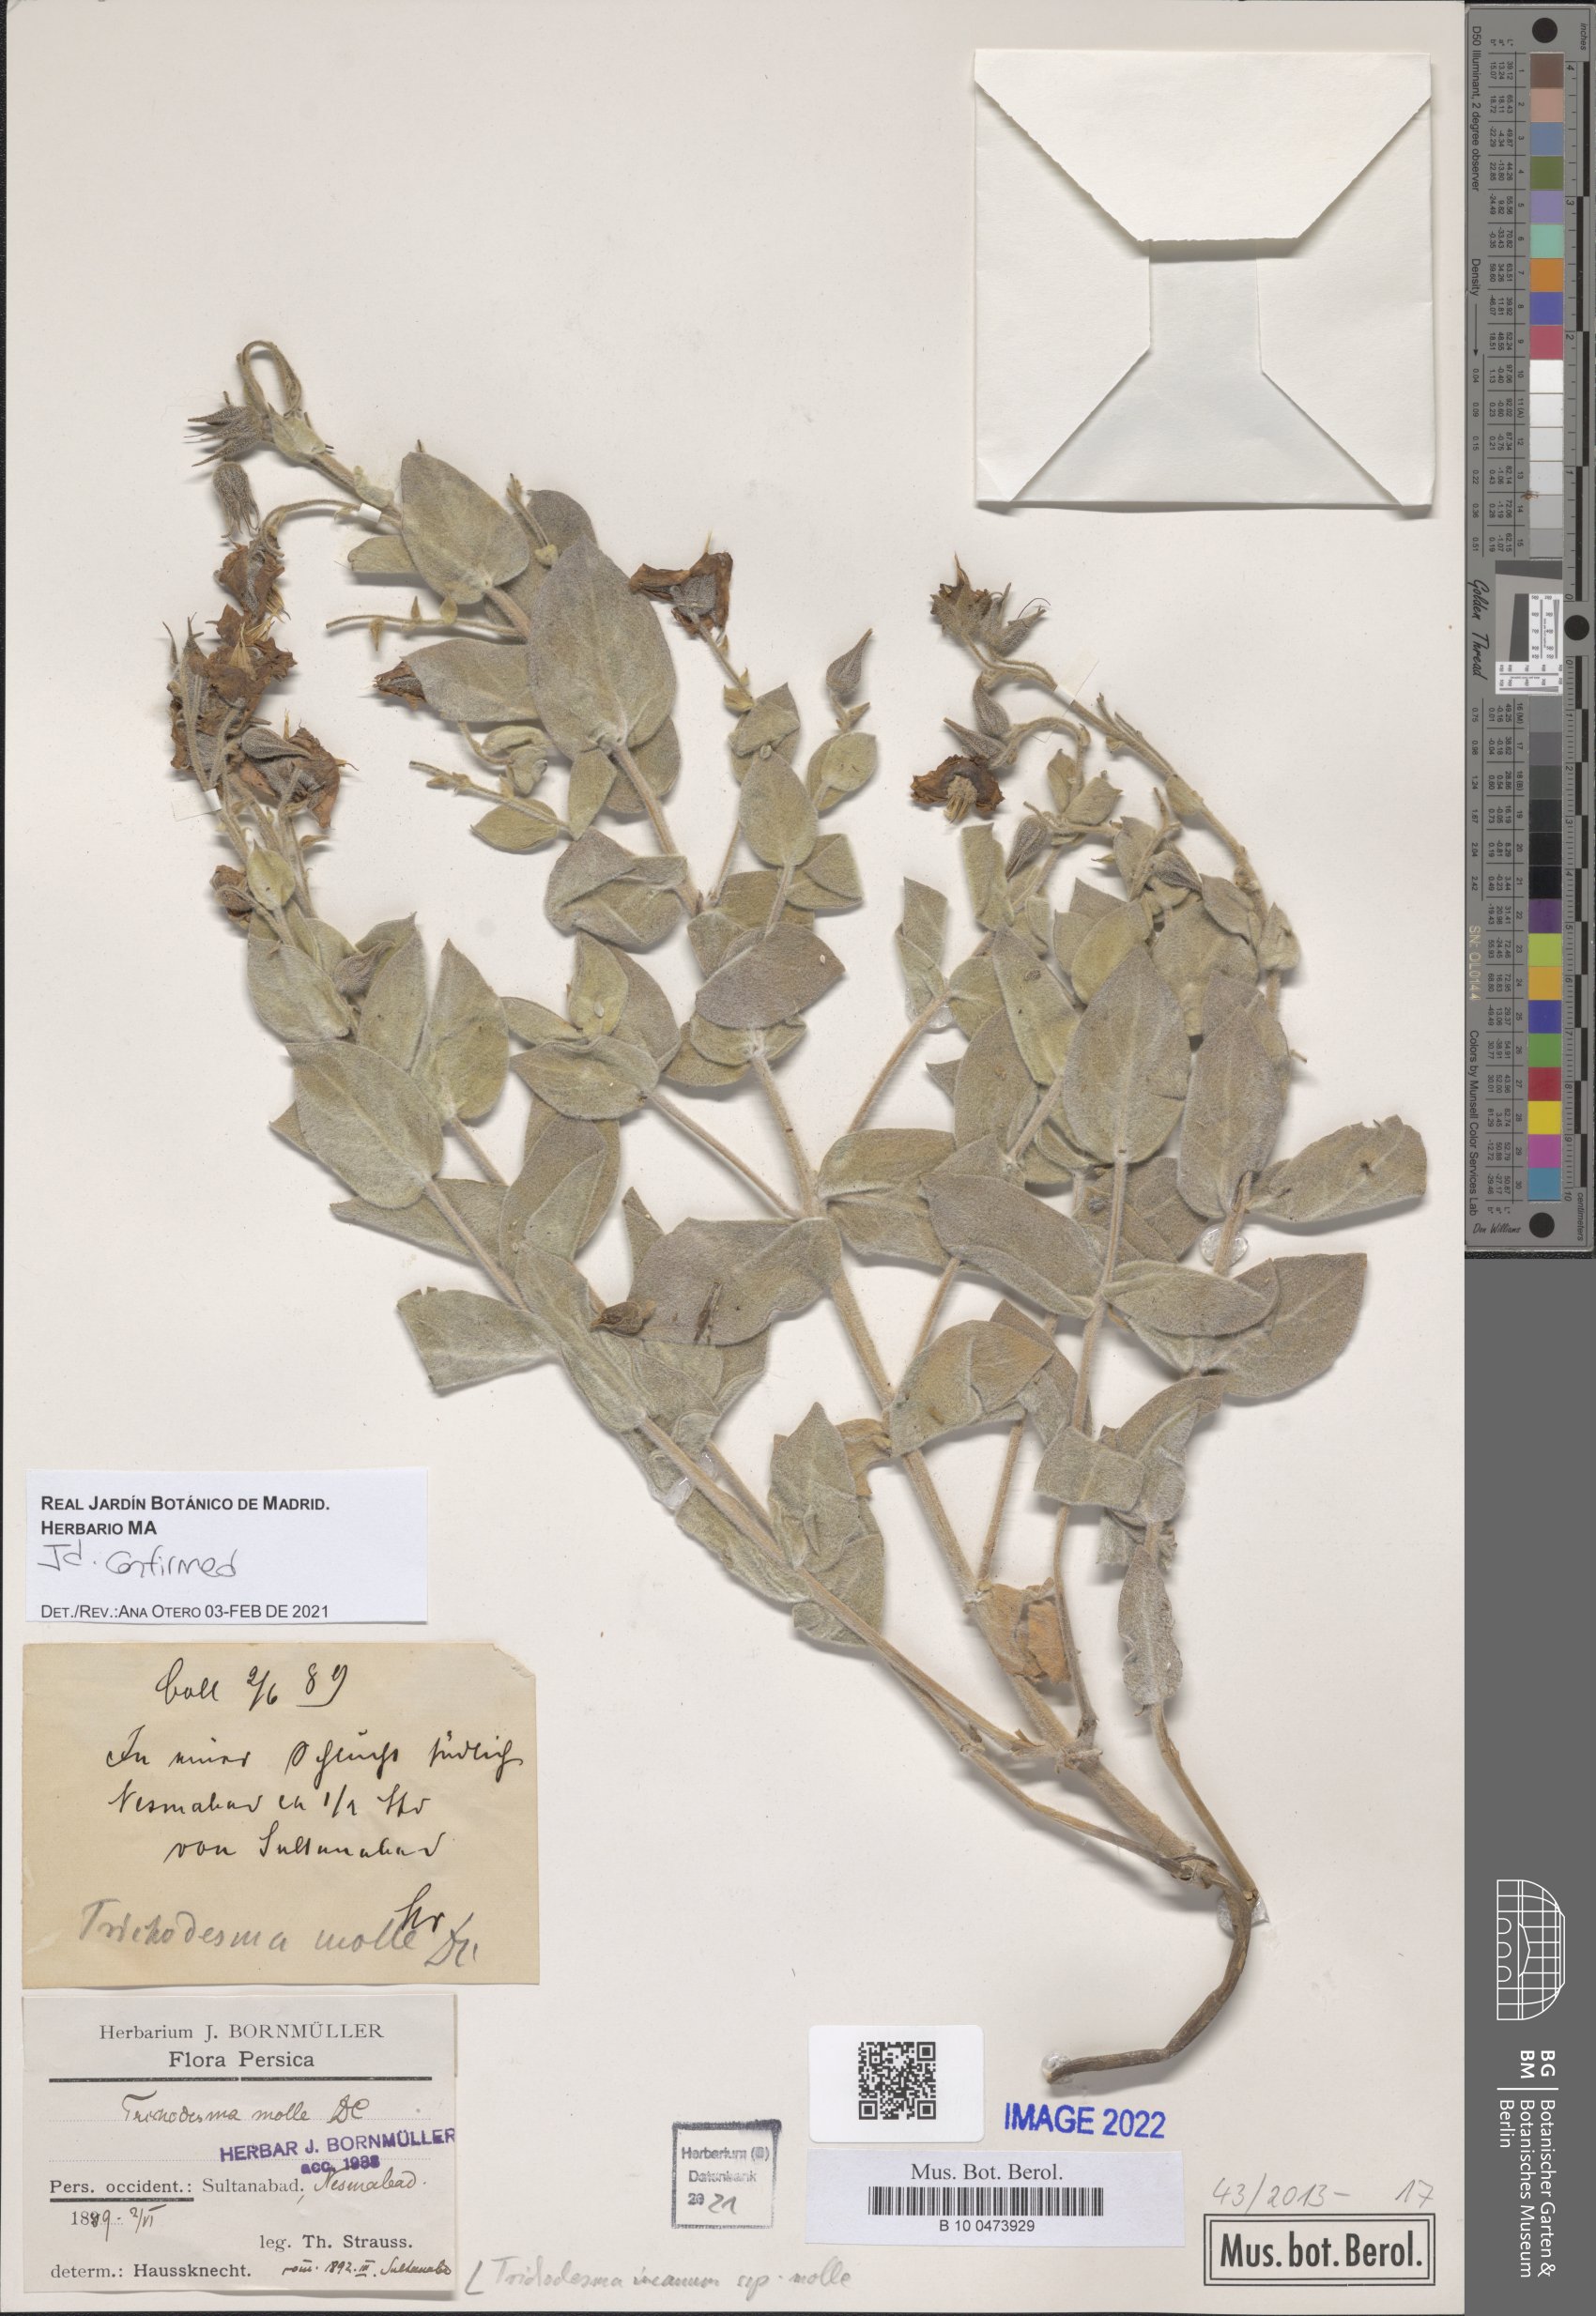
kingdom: Plantae
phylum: Tracheophyta
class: Magnoliopsida
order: Boraginales
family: Boraginaceae
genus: Trichodesma
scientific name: Trichodesma incanum
